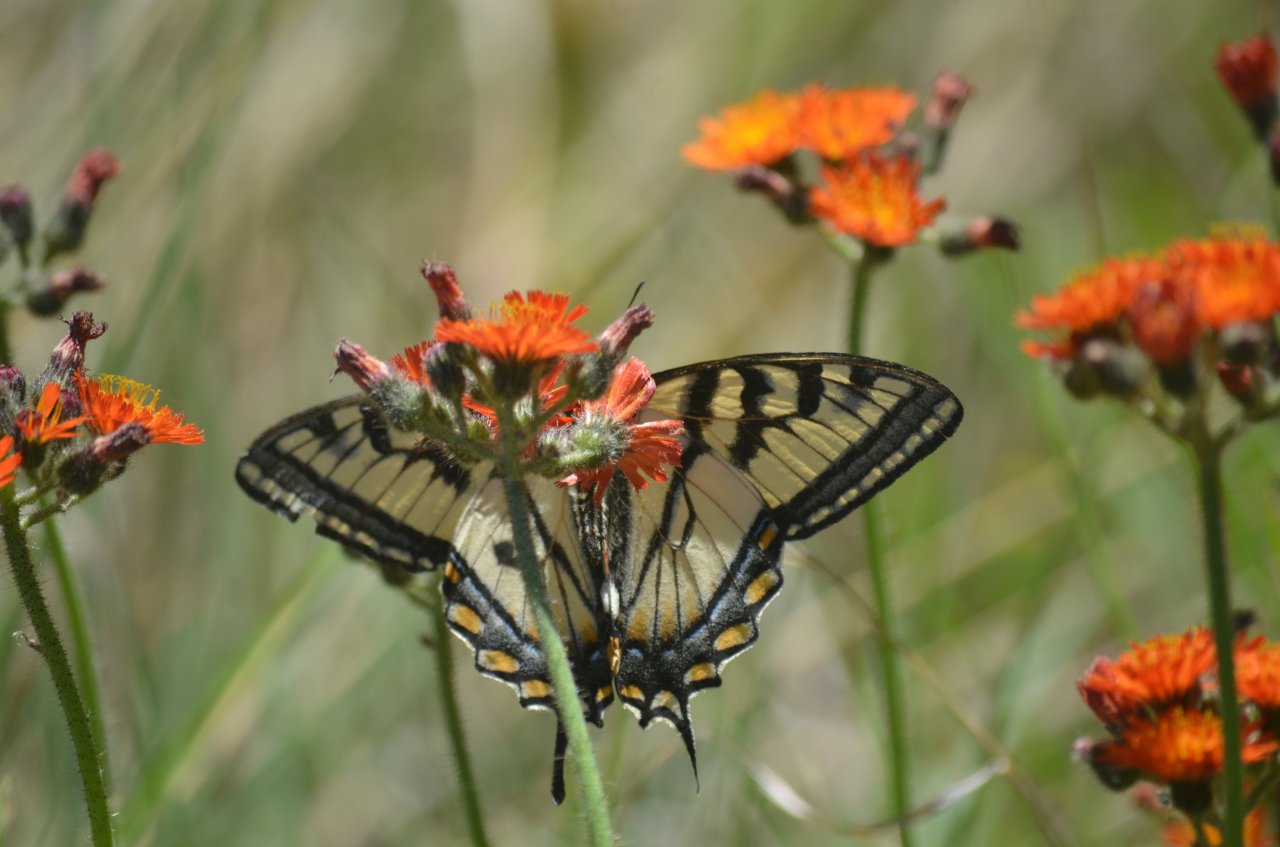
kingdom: Animalia
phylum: Arthropoda
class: Insecta
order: Lepidoptera
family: Papilionidae
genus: Pterourus
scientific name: Pterourus canadensis
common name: Canadian Tiger Swallowtail
